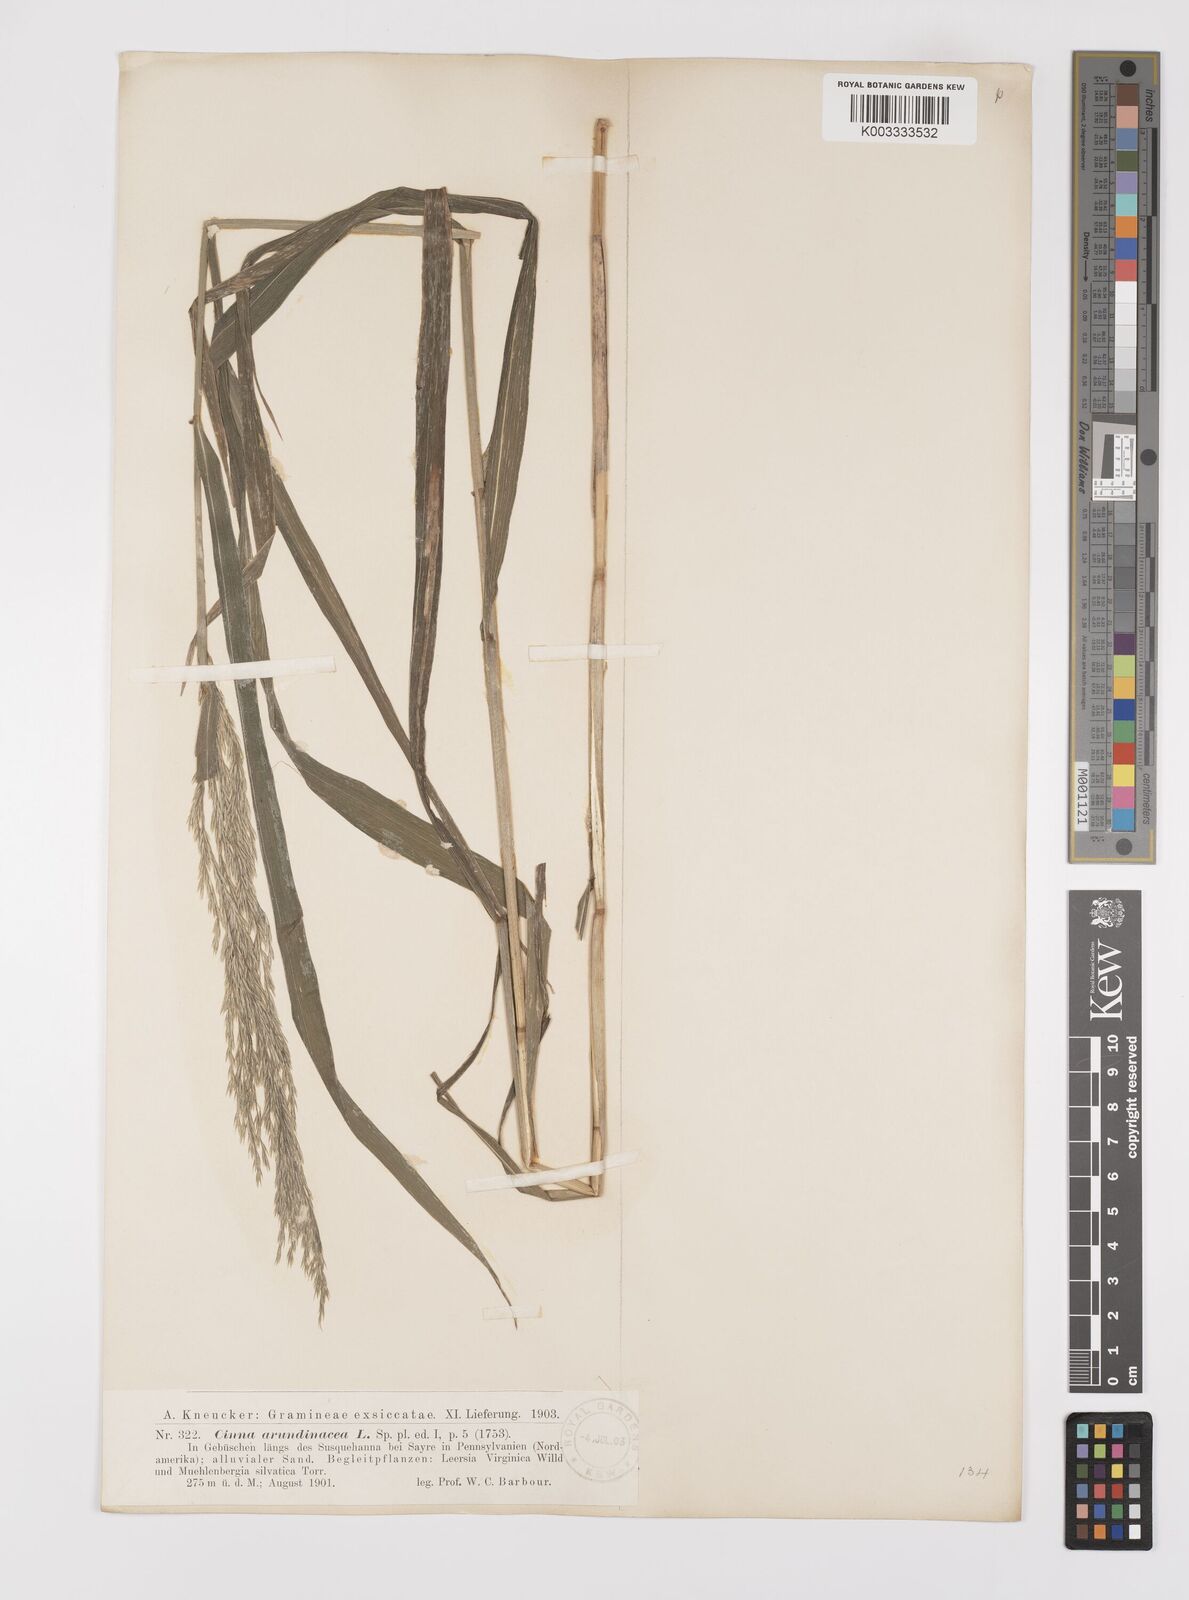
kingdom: Plantae
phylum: Tracheophyta
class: Liliopsida
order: Poales
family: Poaceae
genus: Cinna
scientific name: Cinna
